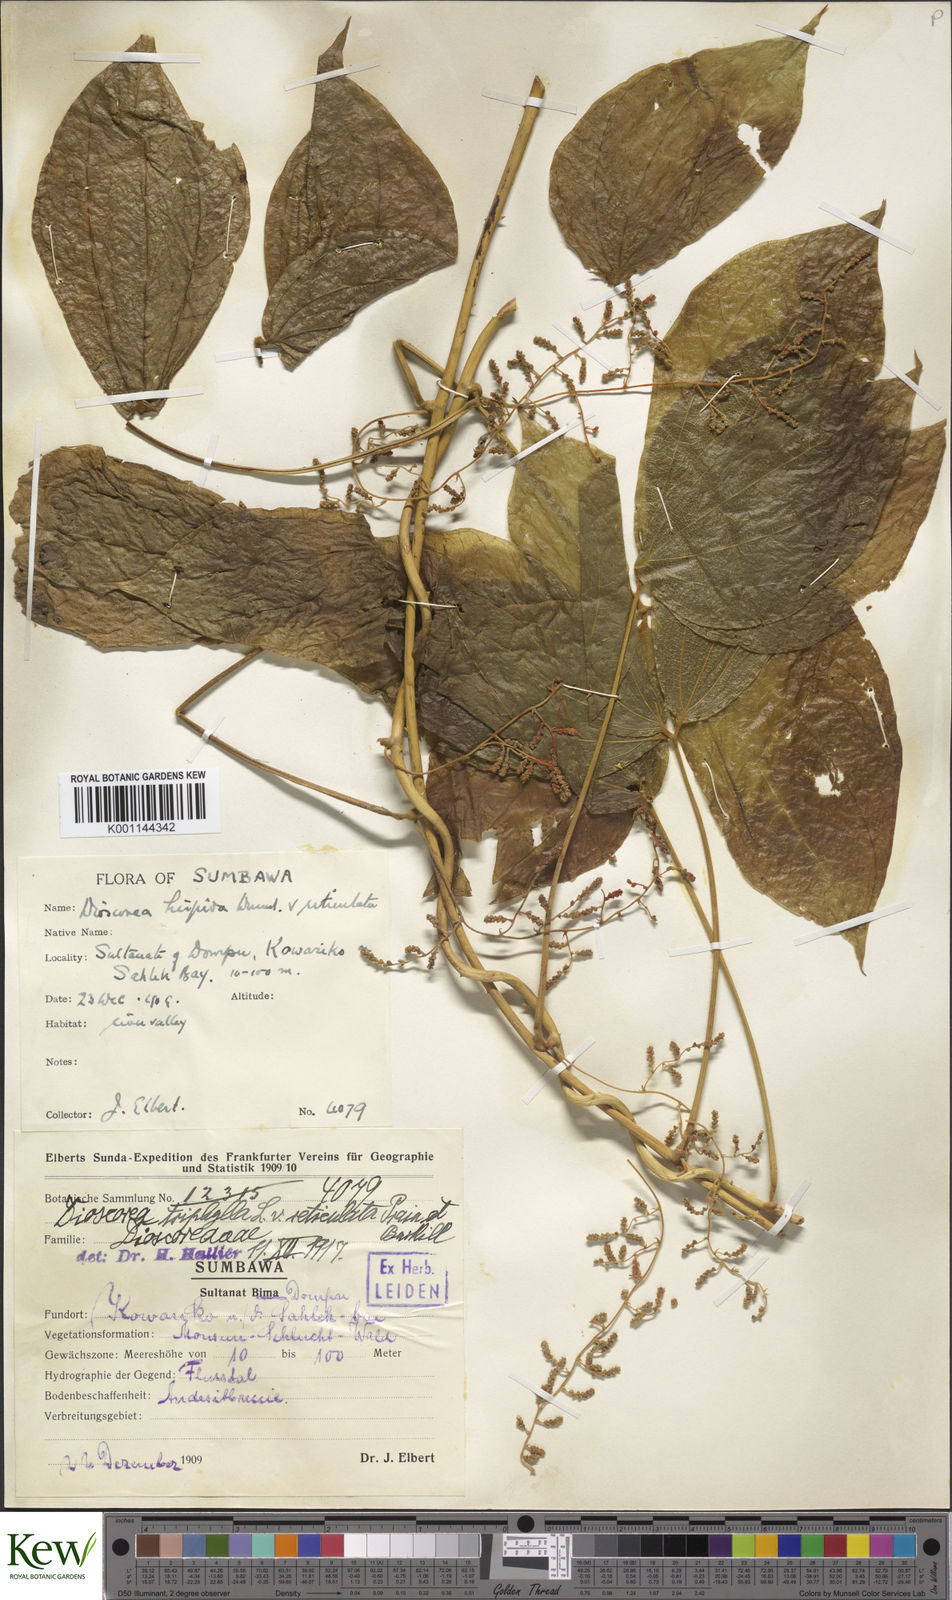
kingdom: Plantae
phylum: Tracheophyta
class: Liliopsida
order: Dioscoreales
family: Dioscoreaceae
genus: Dioscorea
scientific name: Dioscorea hispida
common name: Asiatic bitter yam
